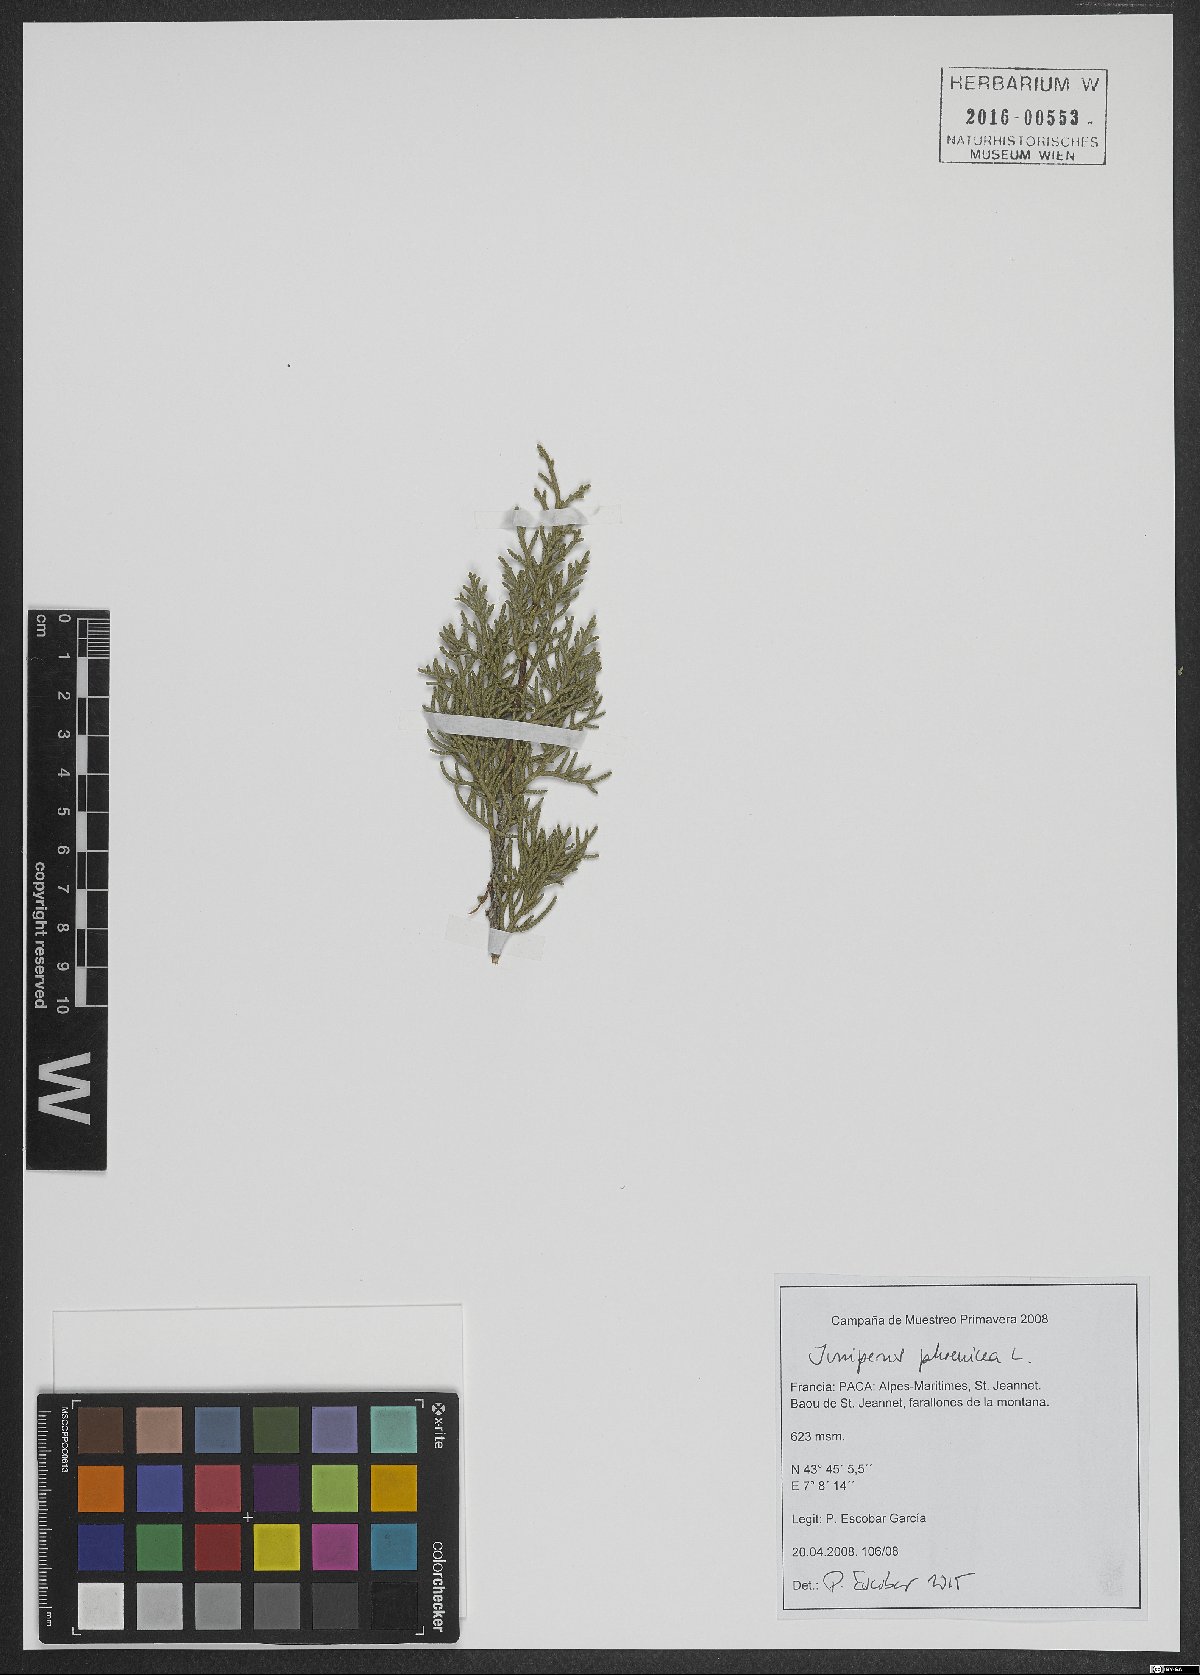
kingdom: Plantae
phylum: Tracheophyta
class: Pinopsida
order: Pinales
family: Cupressaceae
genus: Juniperus
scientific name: Juniperus phoenicea
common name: Phoenician juniper
